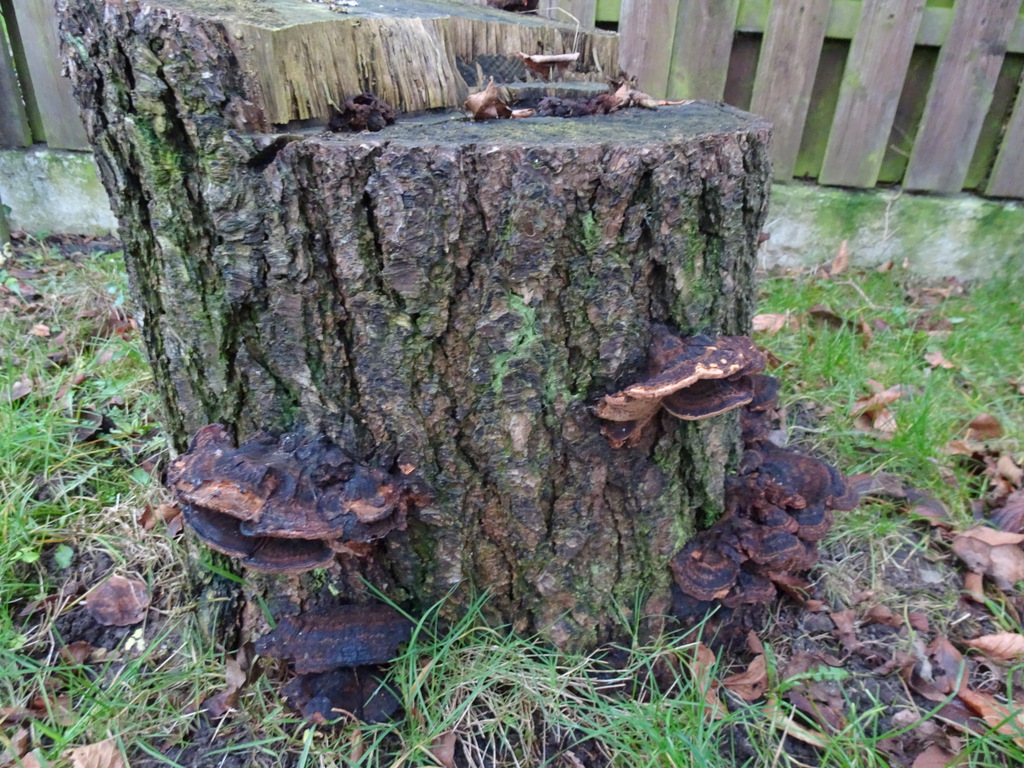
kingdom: Fungi
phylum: Basidiomycota
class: Agaricomycetes
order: Polyporales
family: Ischnodermataceae
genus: Ischnoderma
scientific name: Ischnoderma benzoinum
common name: gran-tjæreporesvamp
